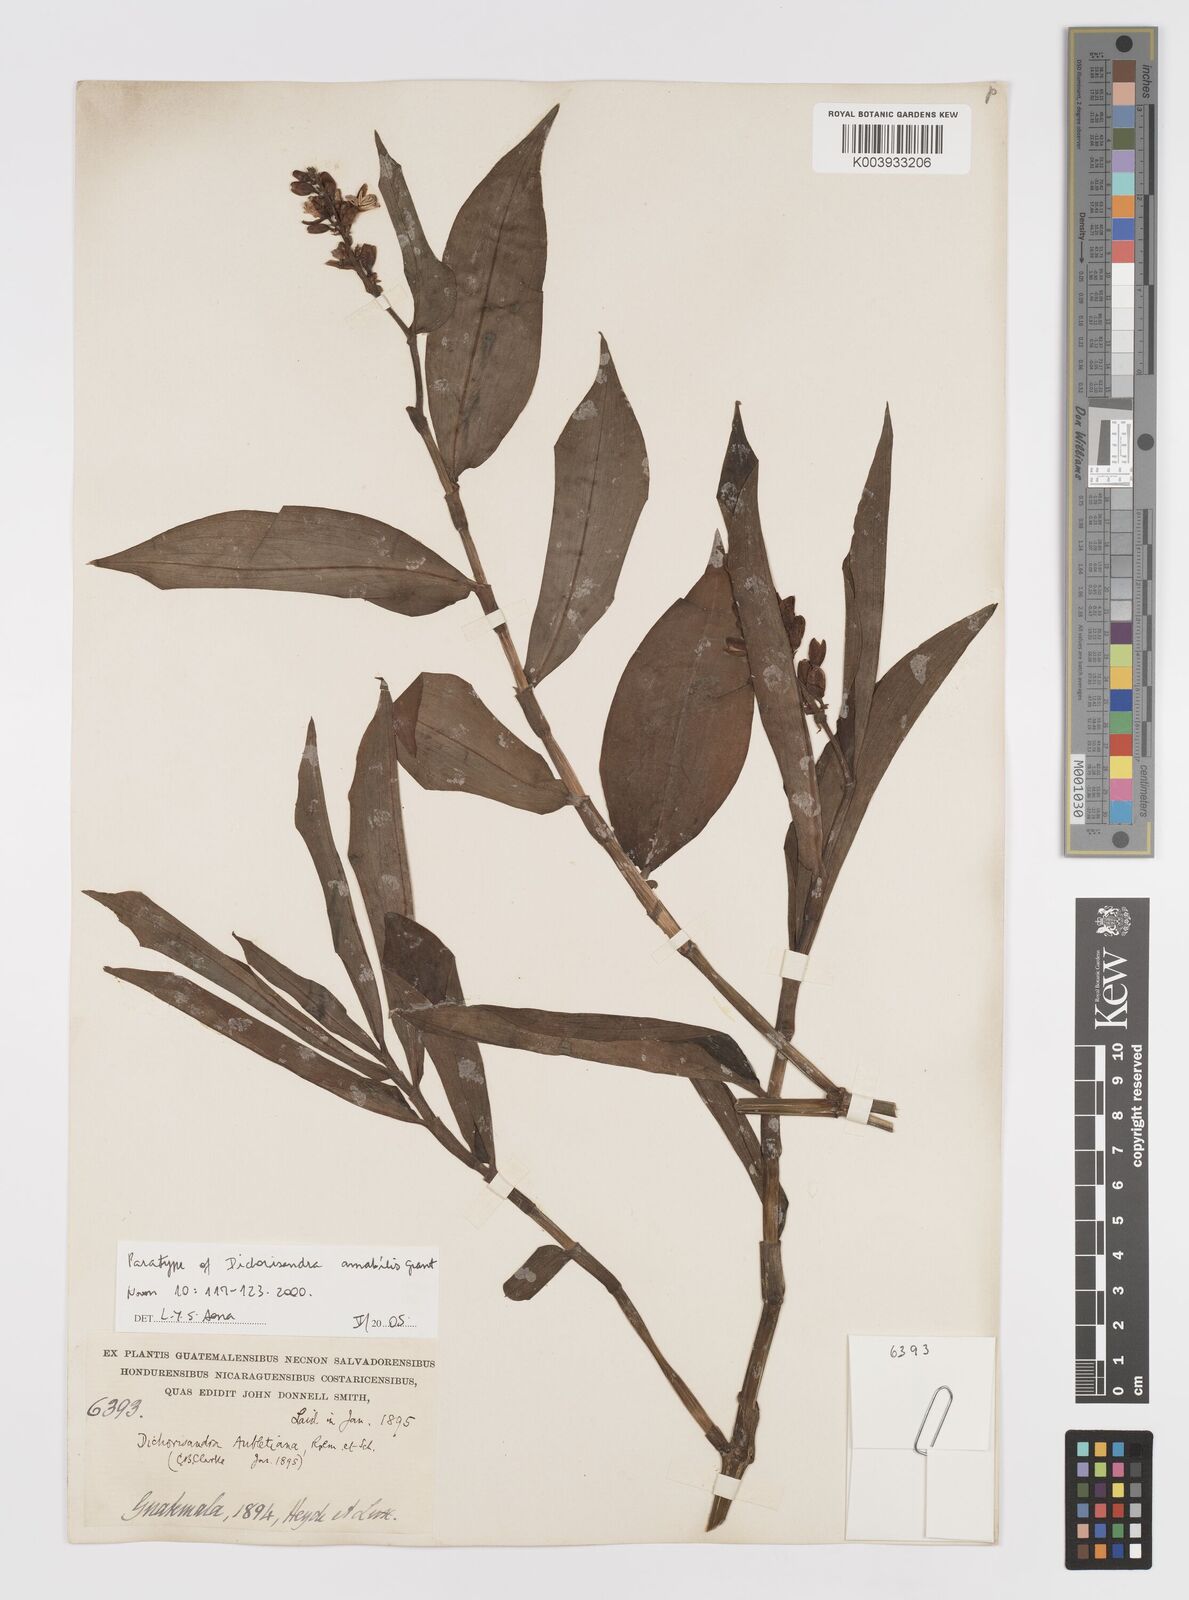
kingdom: Plantae
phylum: Tracheophyta
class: Liliopsida
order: Commelinales
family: Commelinaceae
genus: Dichorisandra
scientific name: Dichorisandra amabilis
